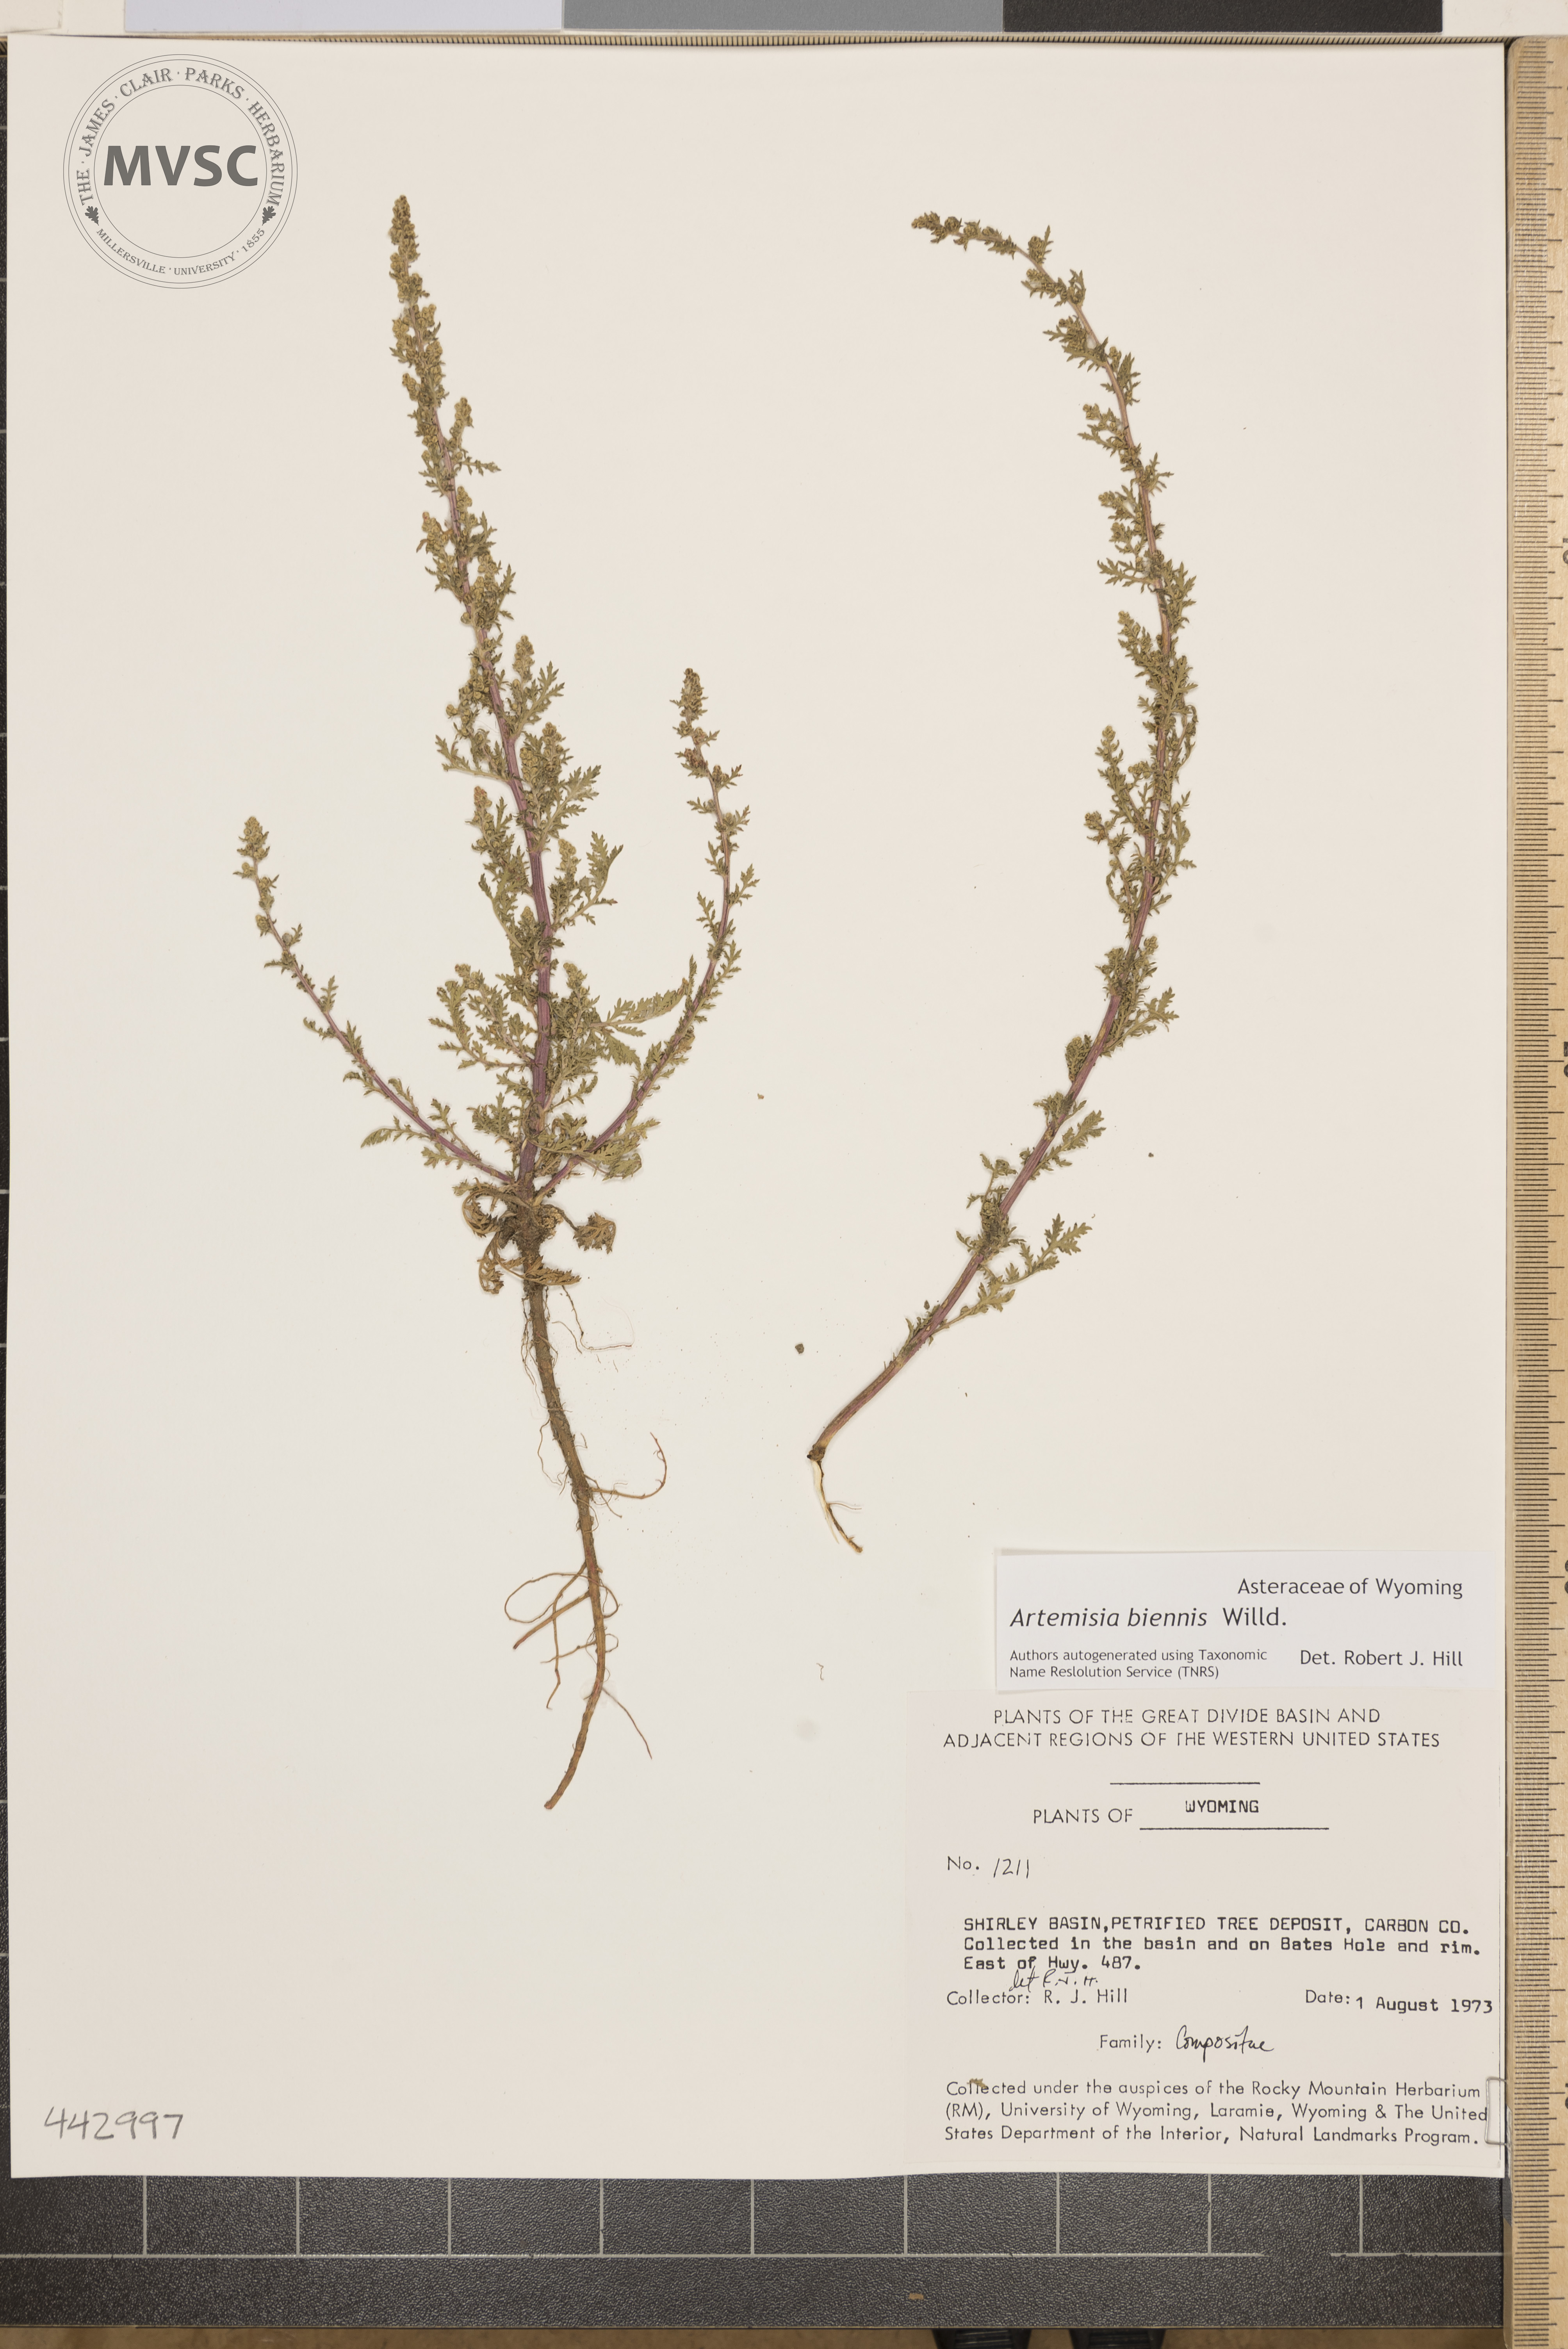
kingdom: Plantae
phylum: Tracheophyta
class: Magnoliopsida
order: Asterales
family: Asteraceae
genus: Artemisia
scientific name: Artemisia biennis
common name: Biennial wormwood
